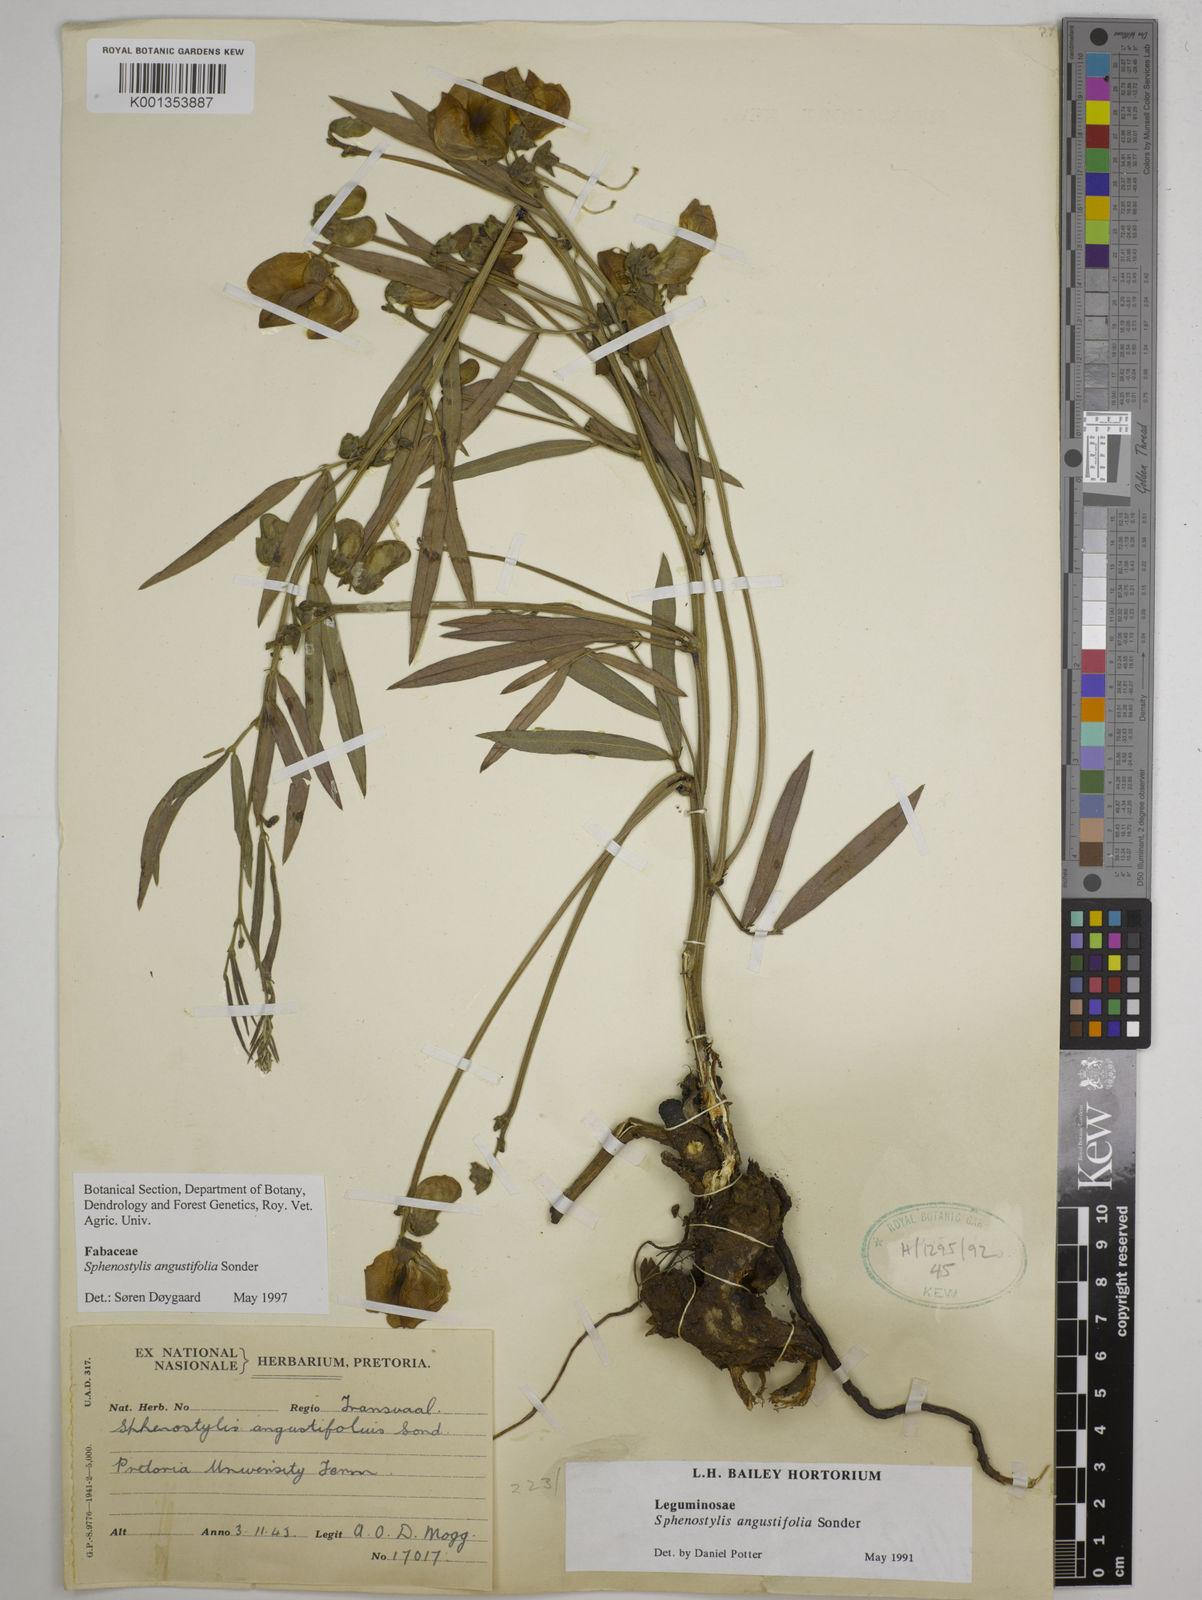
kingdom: Plantae
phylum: Tracheophyta
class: Magnoliopsida
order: Fabales
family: Fabaceae
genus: Sphenostylis
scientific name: Sphenostylis angustifolia
